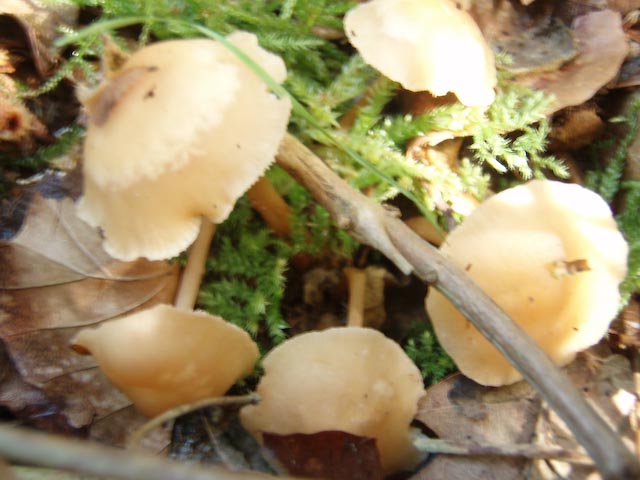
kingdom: Fungi
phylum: Basidiomycota
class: Agaricomycetes
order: Agaricales
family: Omphalotaceae
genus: Gymnopus
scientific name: Gymnopus dryophilus
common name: løv-fladhat
